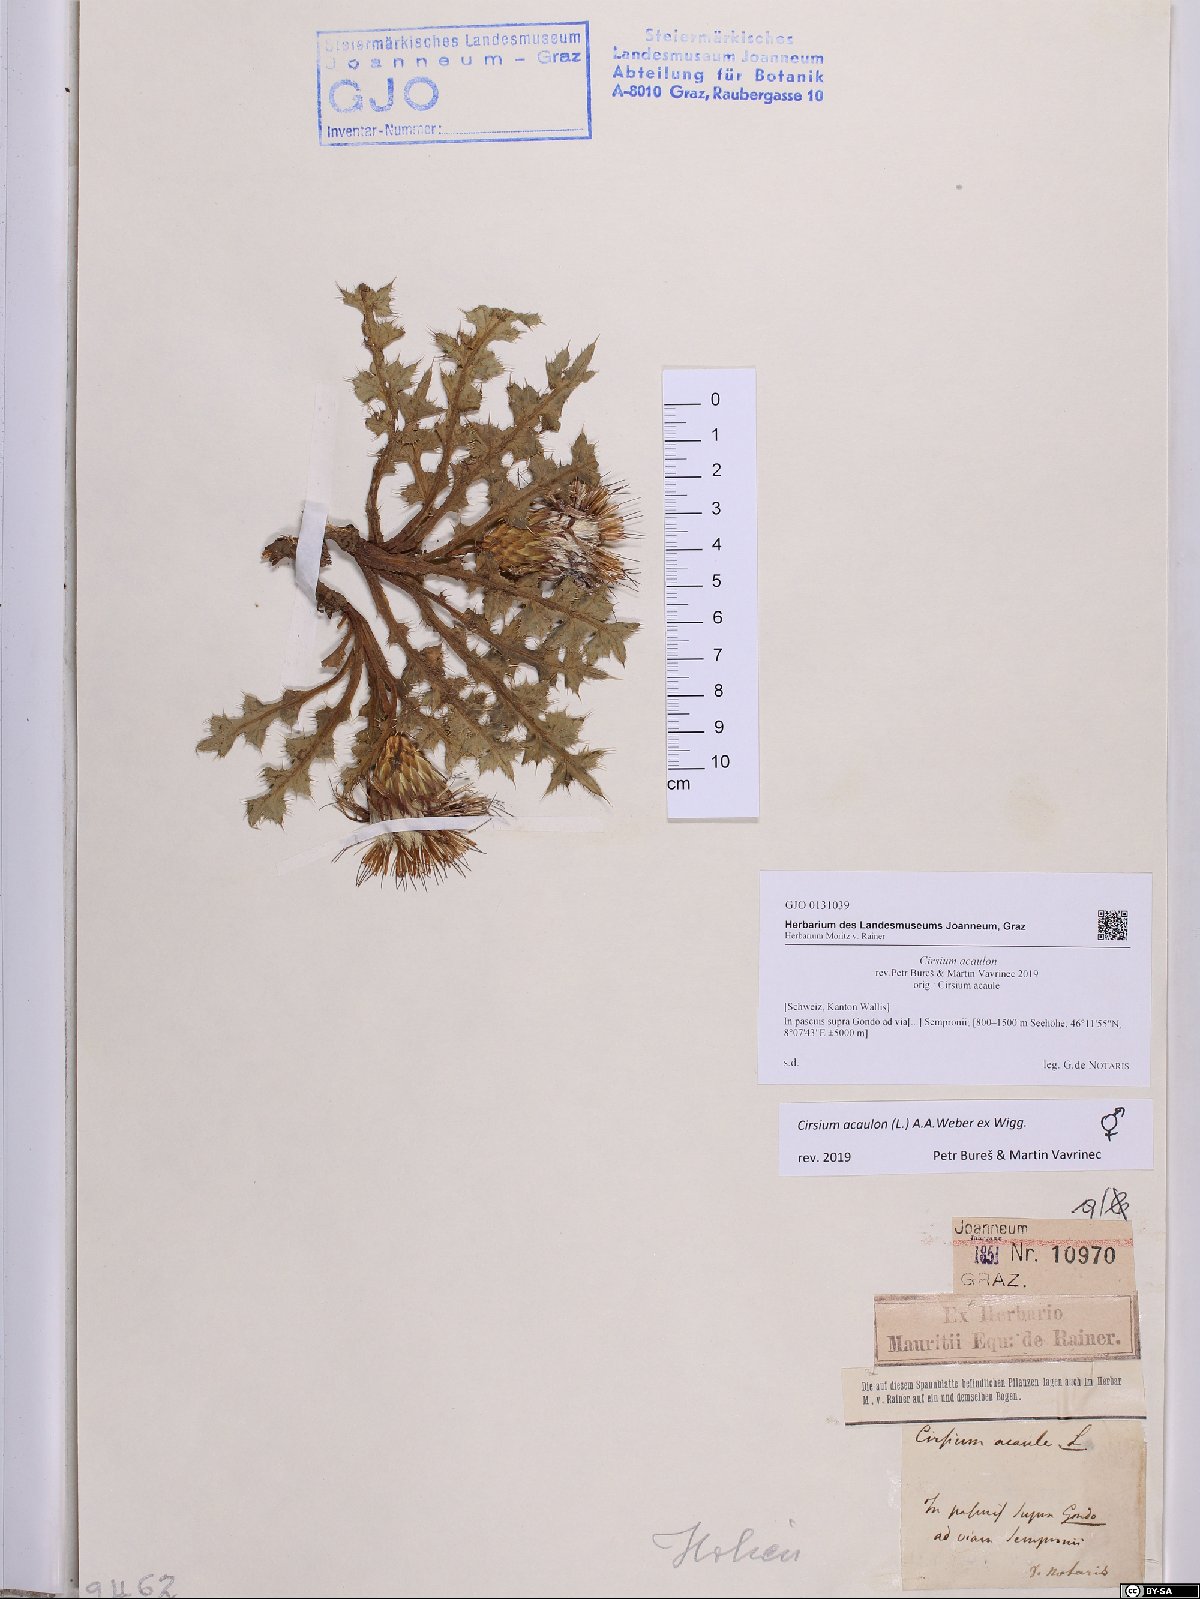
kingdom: Plantae
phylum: Tracheophyta
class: Magnoliopsida
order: Asterales
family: Asteraceae
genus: Cirsium
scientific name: Cirsium acaulon
